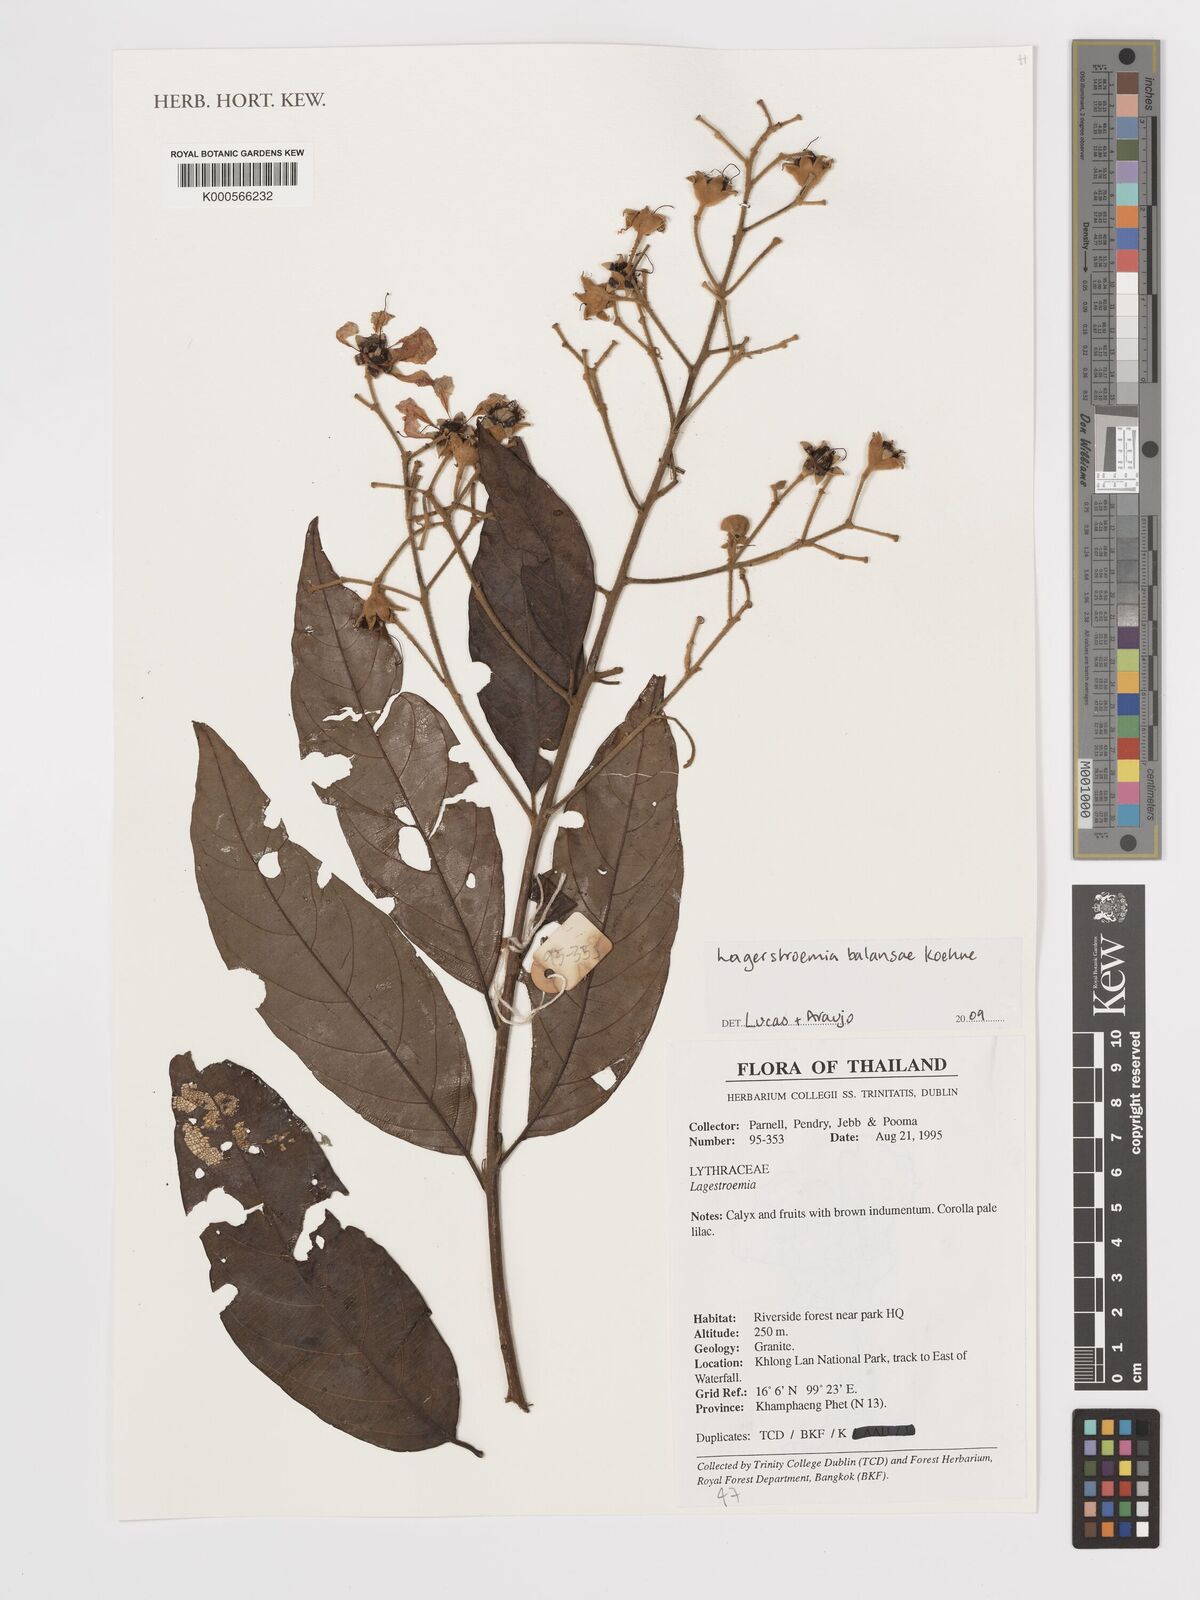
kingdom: Plantae
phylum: Tracheophyta
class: Magnoliopsida
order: Myrtales
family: Lythraceae
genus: Lagerstroemia
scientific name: Lagerstroemia cochinchinensis
